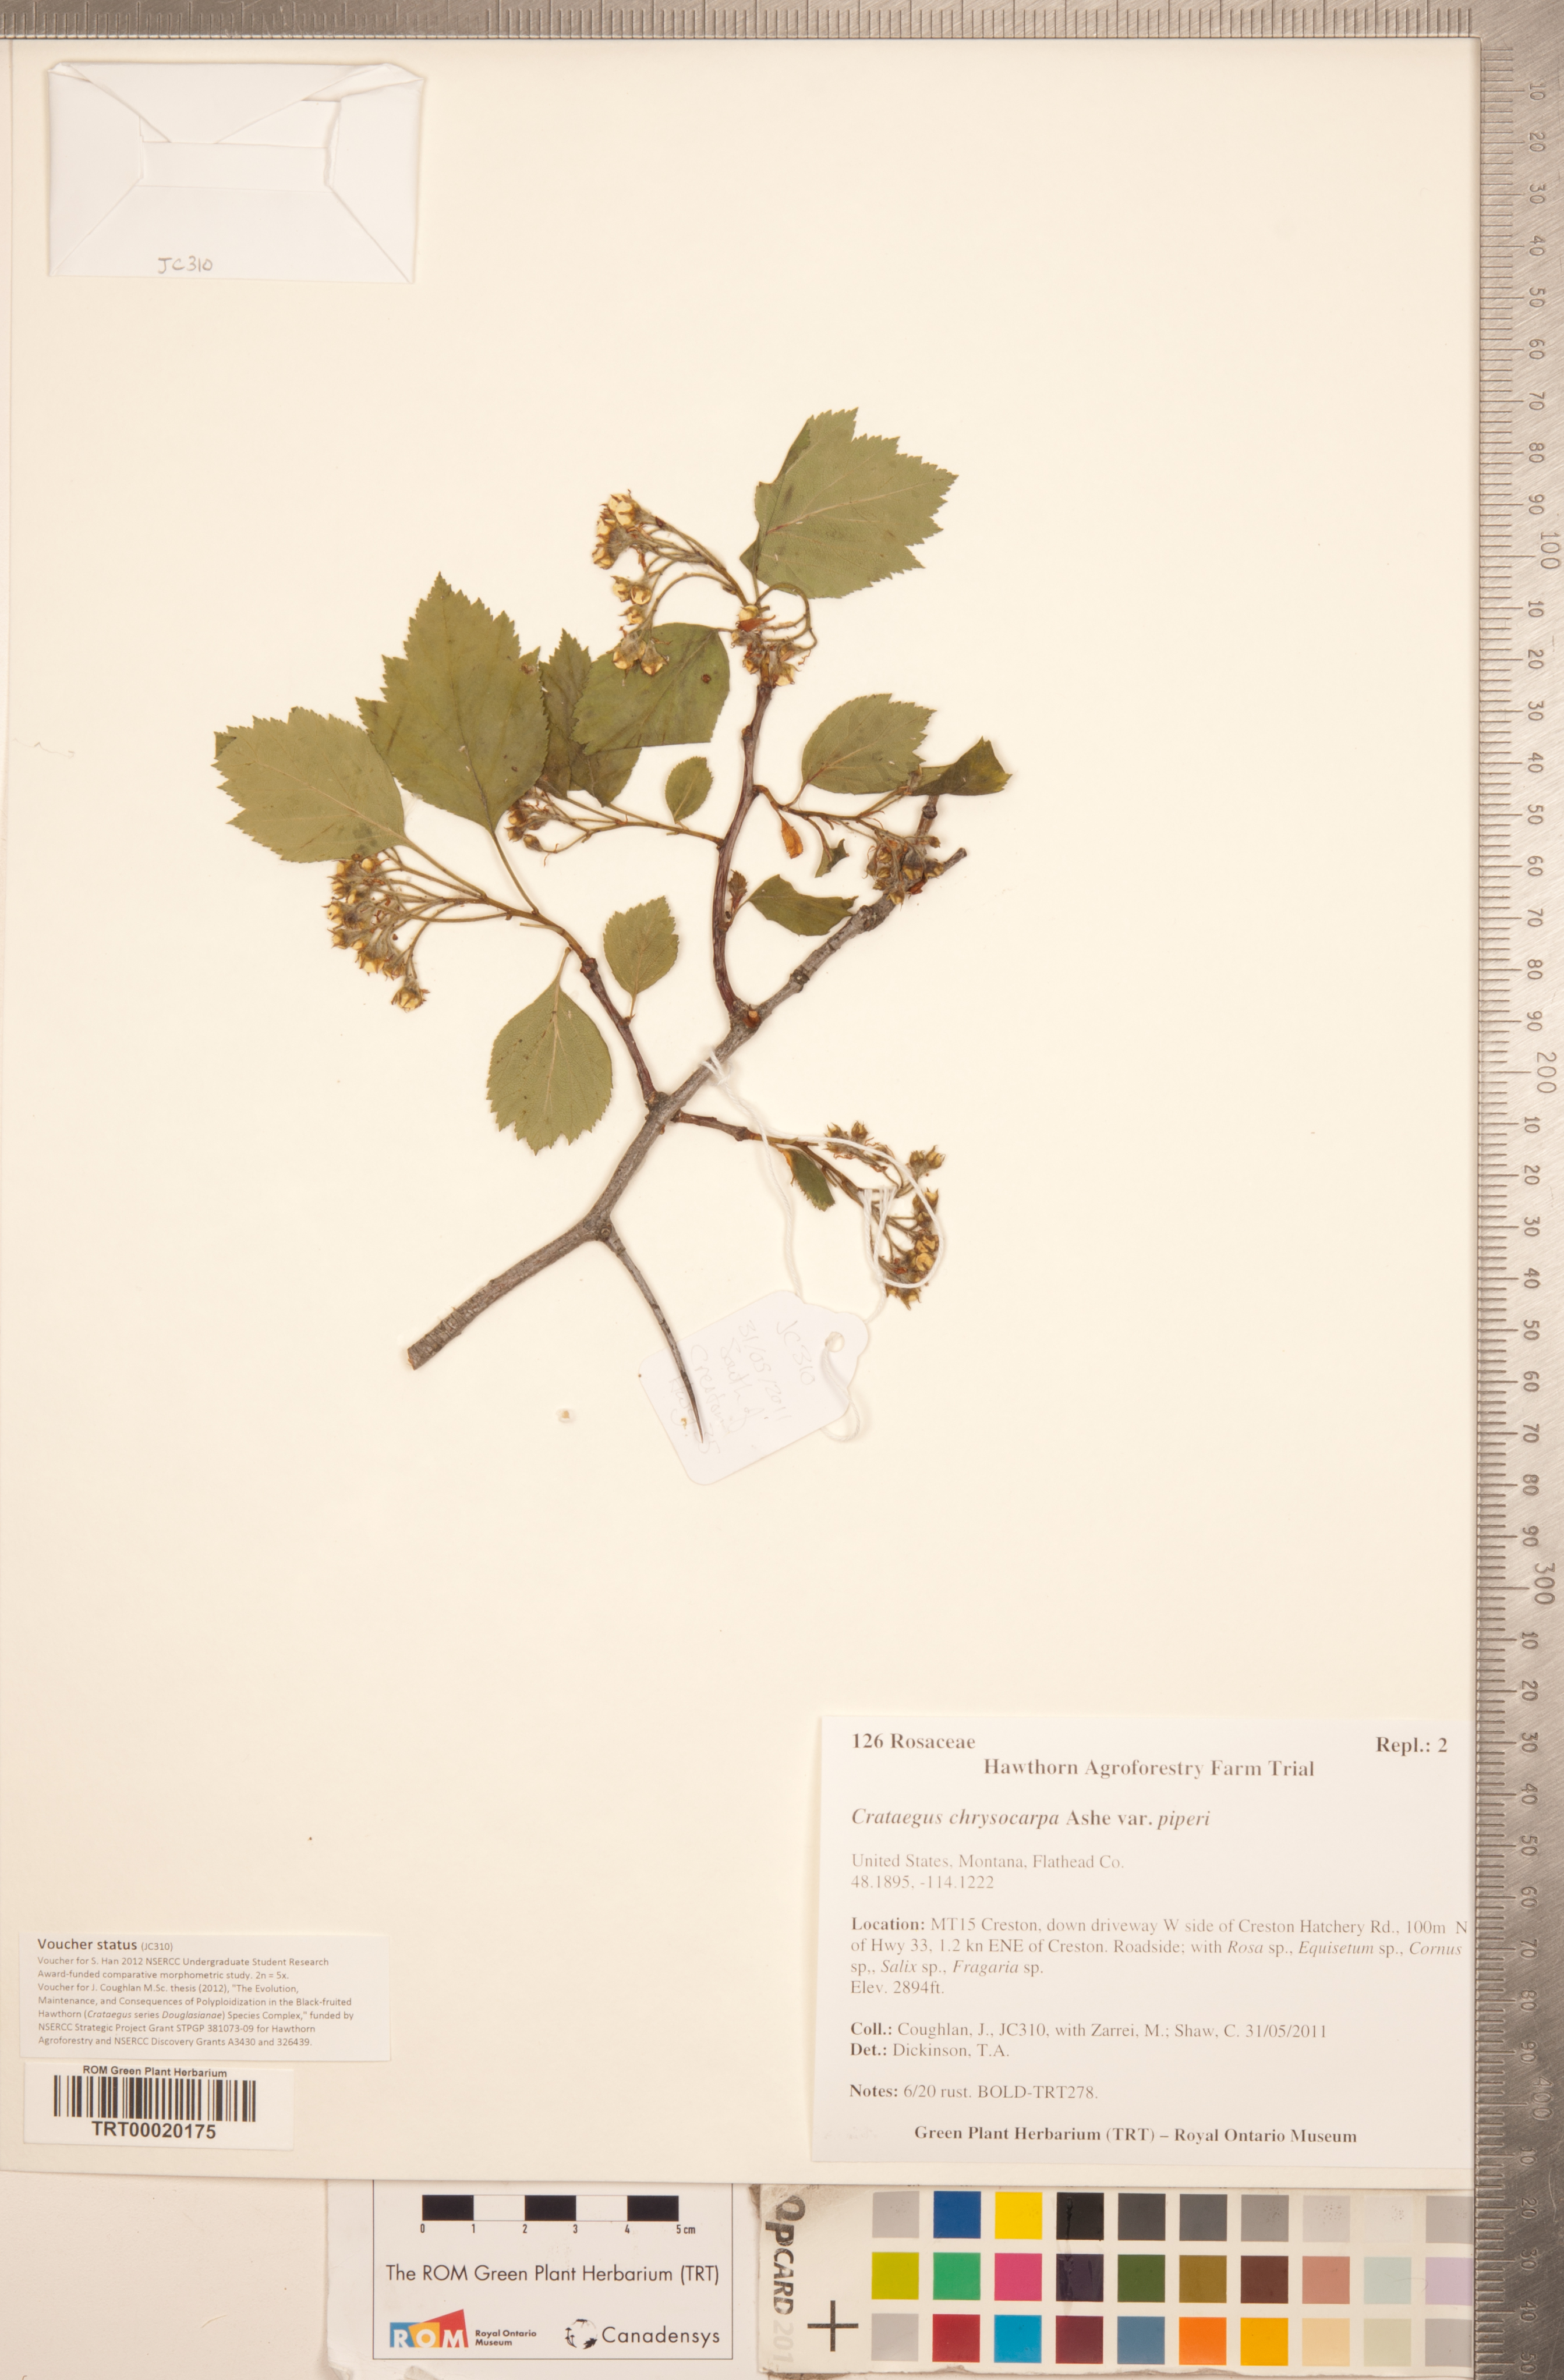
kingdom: Plantae
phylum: Tracheophyta
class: Magnoliopsida
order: Rosales
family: Rosaceae
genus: Crataegus
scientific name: Crataegus piperi
